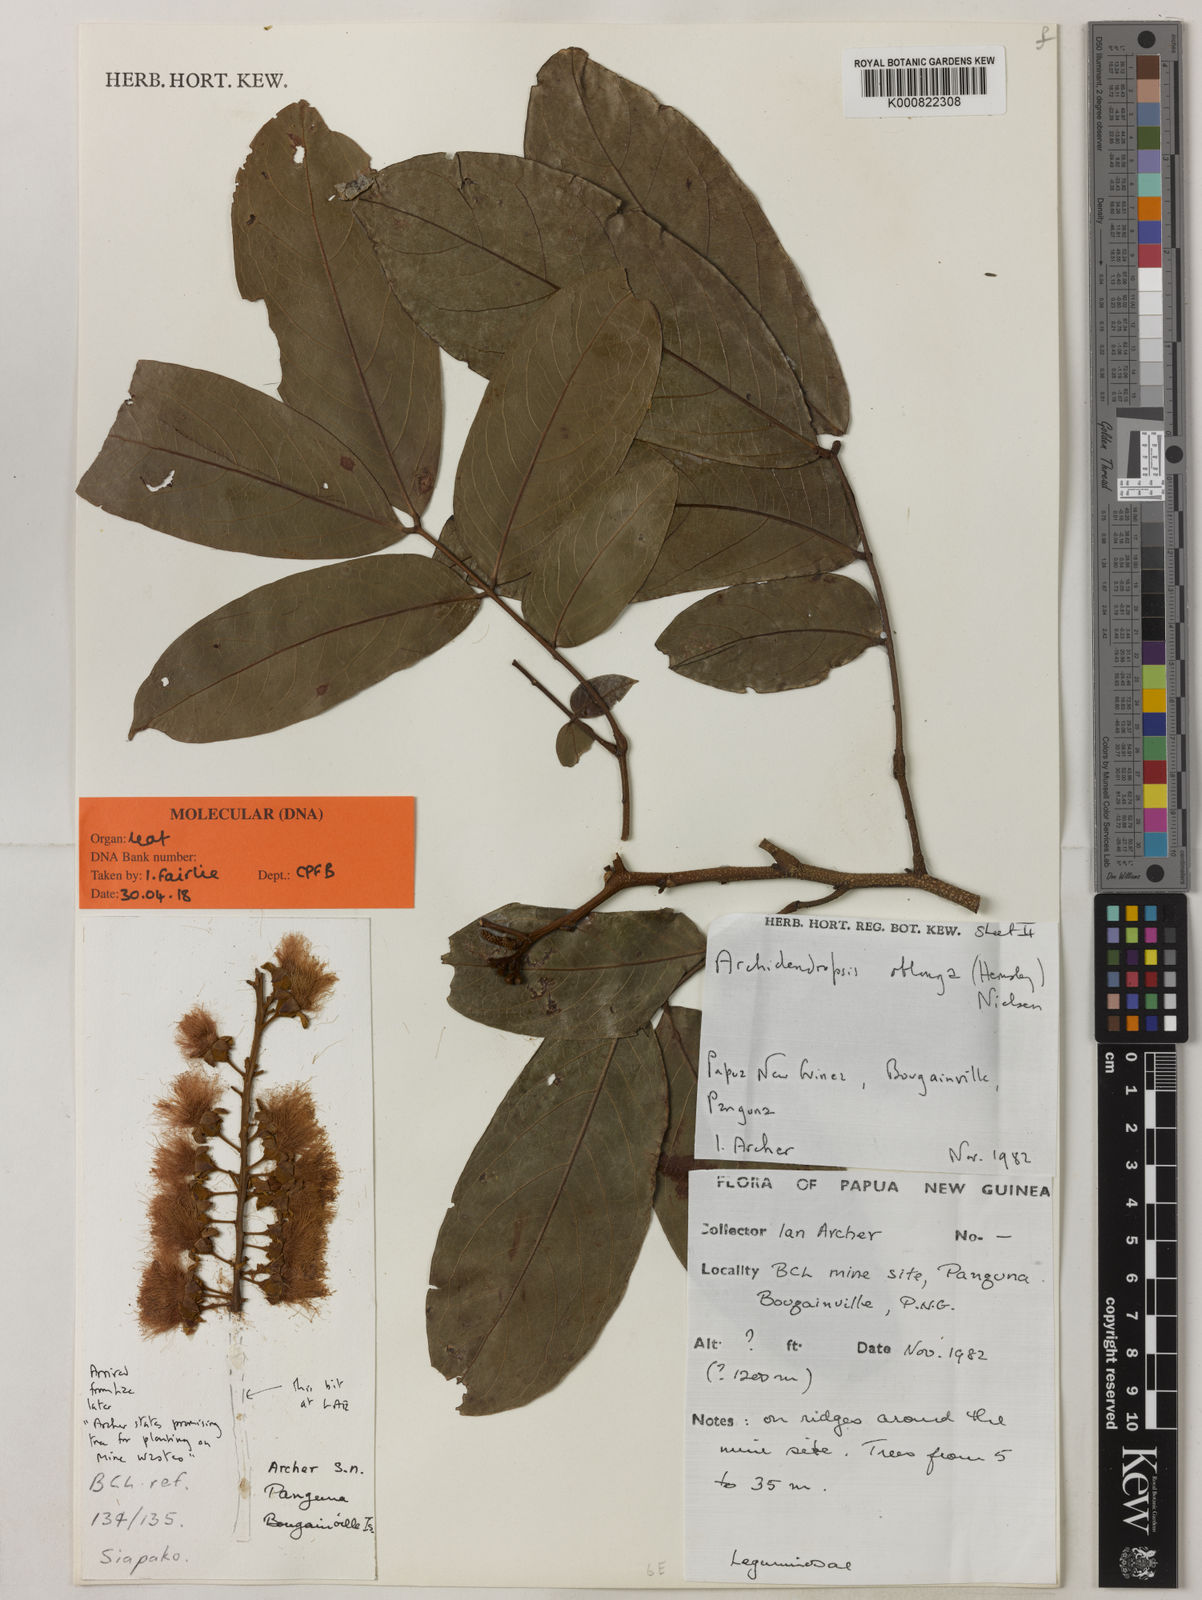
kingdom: Plantae
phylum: Tracheophyta
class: Magnoliopsida
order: Fabales
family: Fabaceae
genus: Archidendropsis
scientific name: Archidendropsis oblonga
